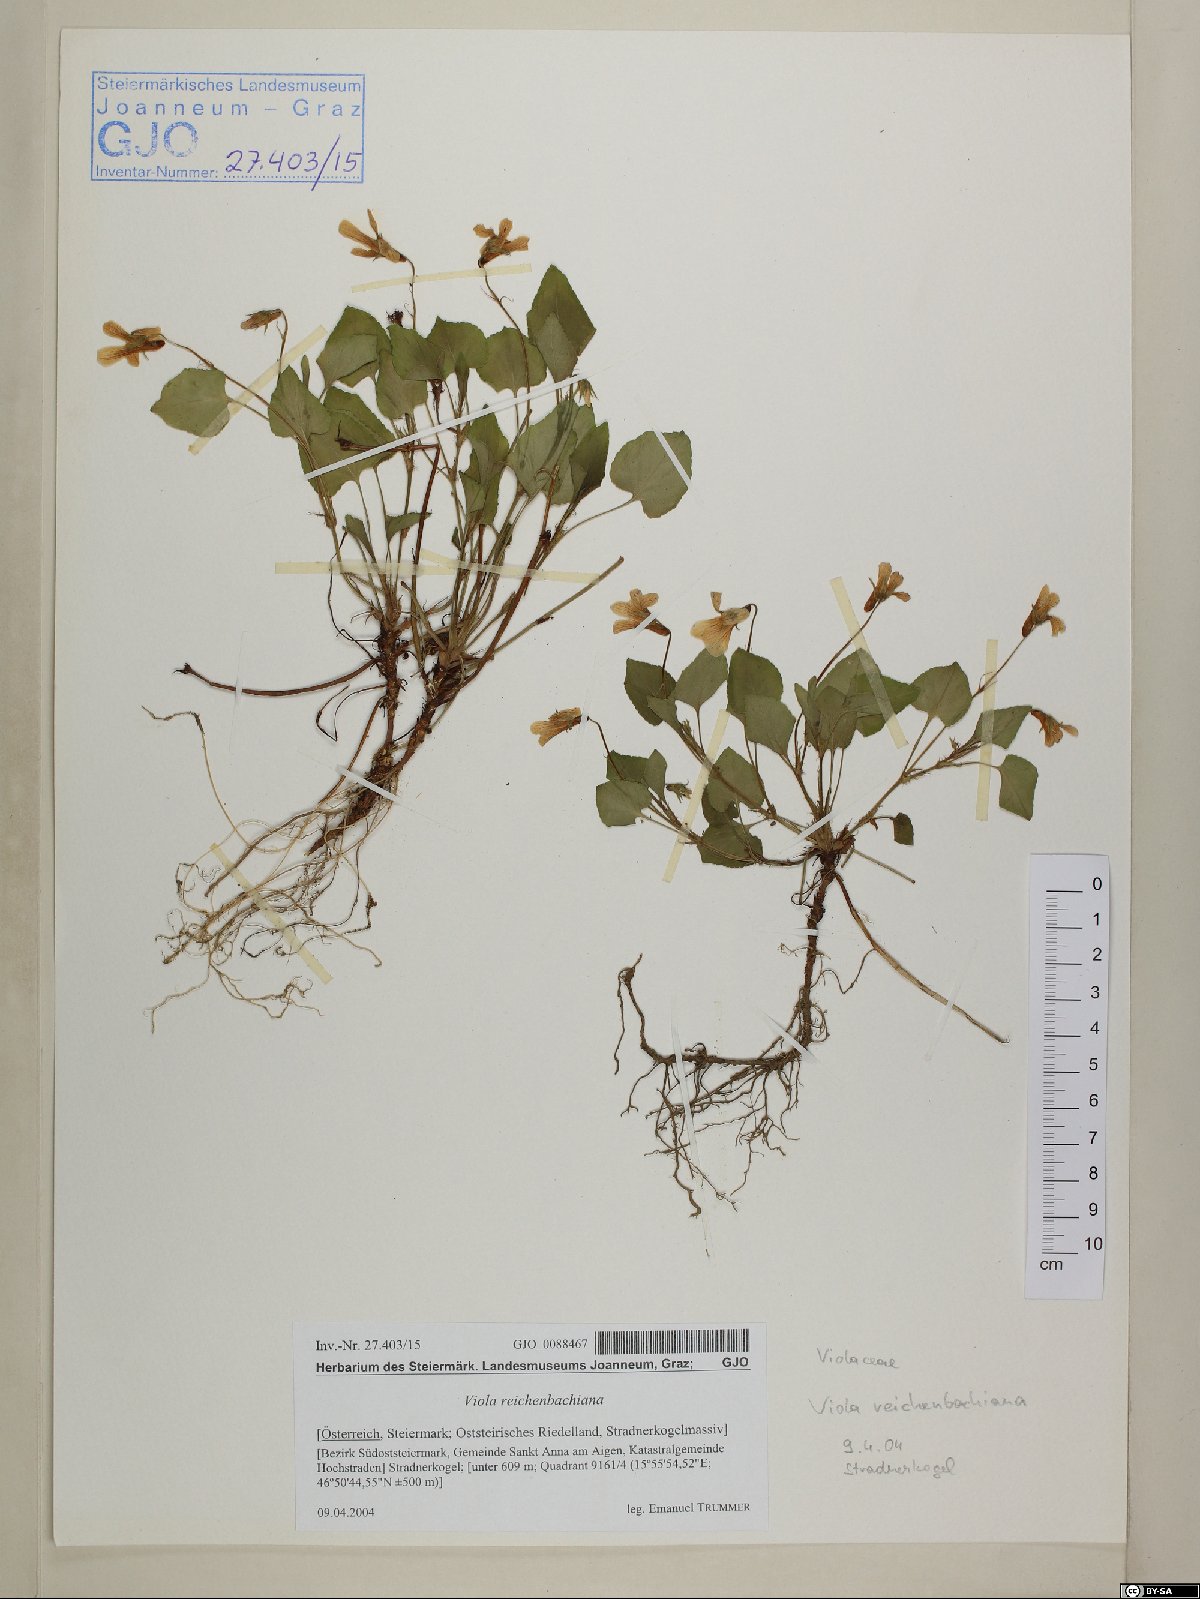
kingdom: Plantae
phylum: Tracheophyta
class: Magnoliopsida
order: Malpighiales
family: Violaceae
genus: Viola
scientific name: Viola reichenbachiana
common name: Early dog-violet
